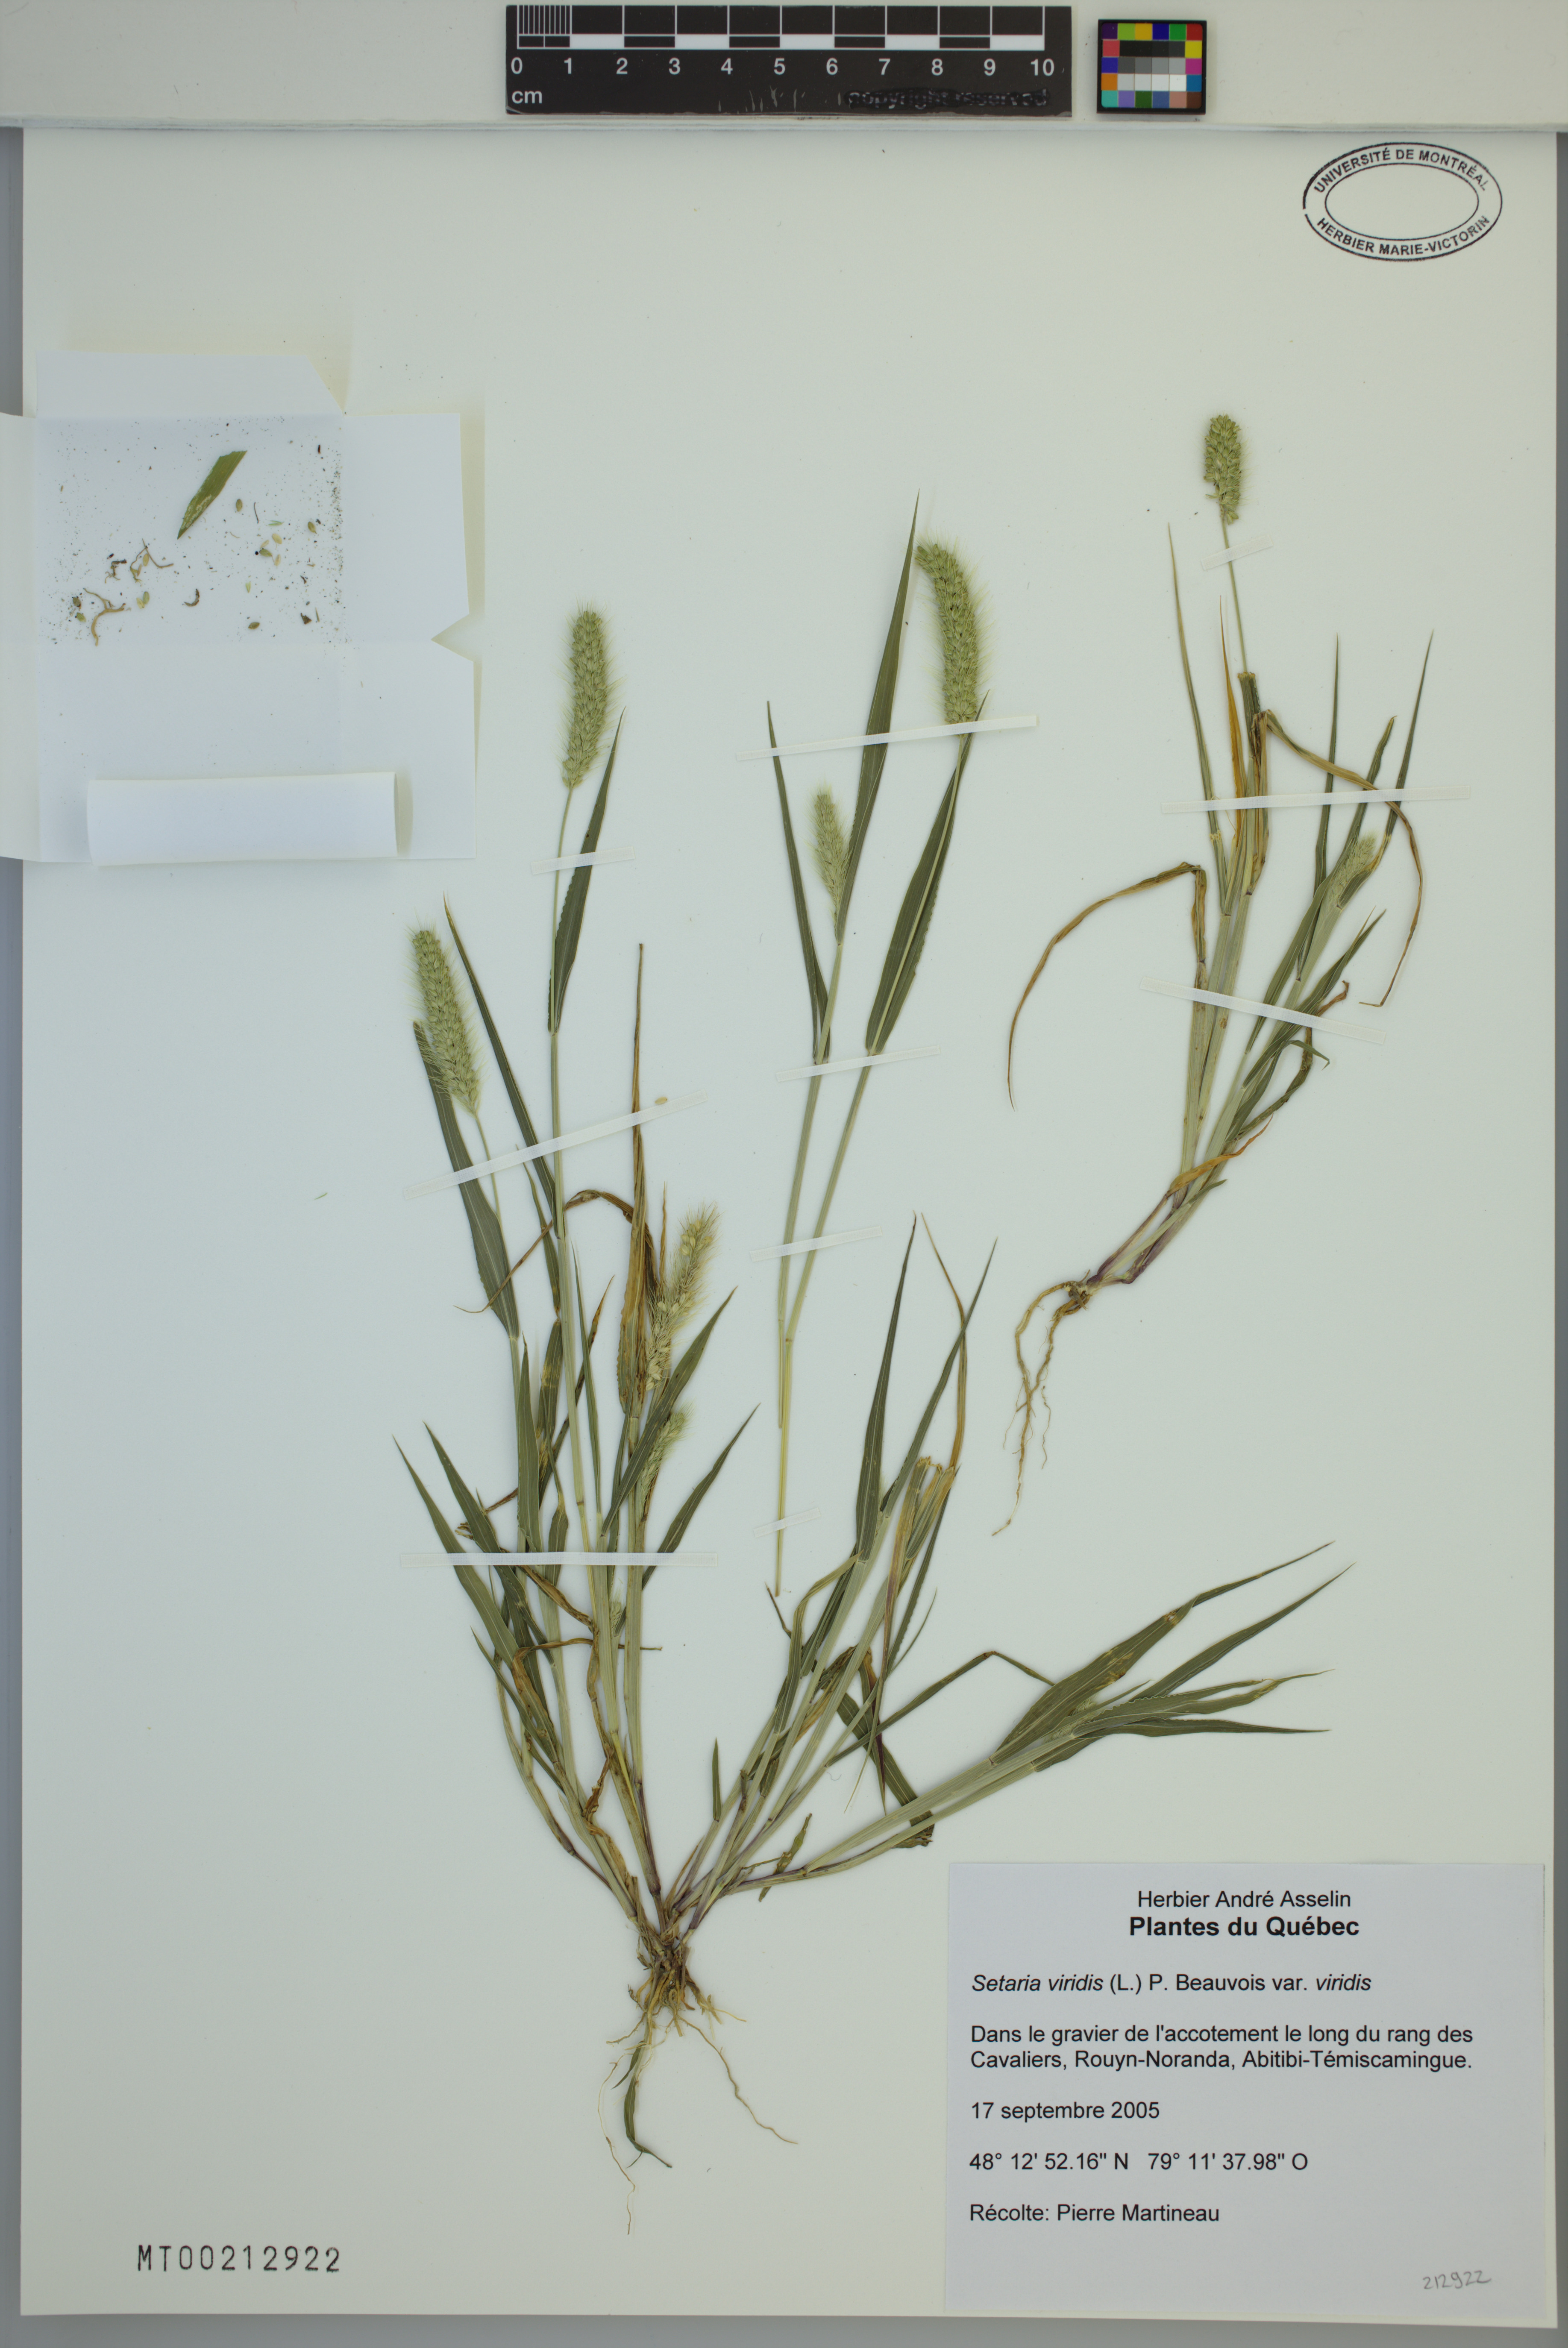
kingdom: Plantae
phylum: Tracheophyta
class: Liliopsida
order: Poales
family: Poaceae
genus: Setaria
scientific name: Setaria viridis
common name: Green bristlegrass
